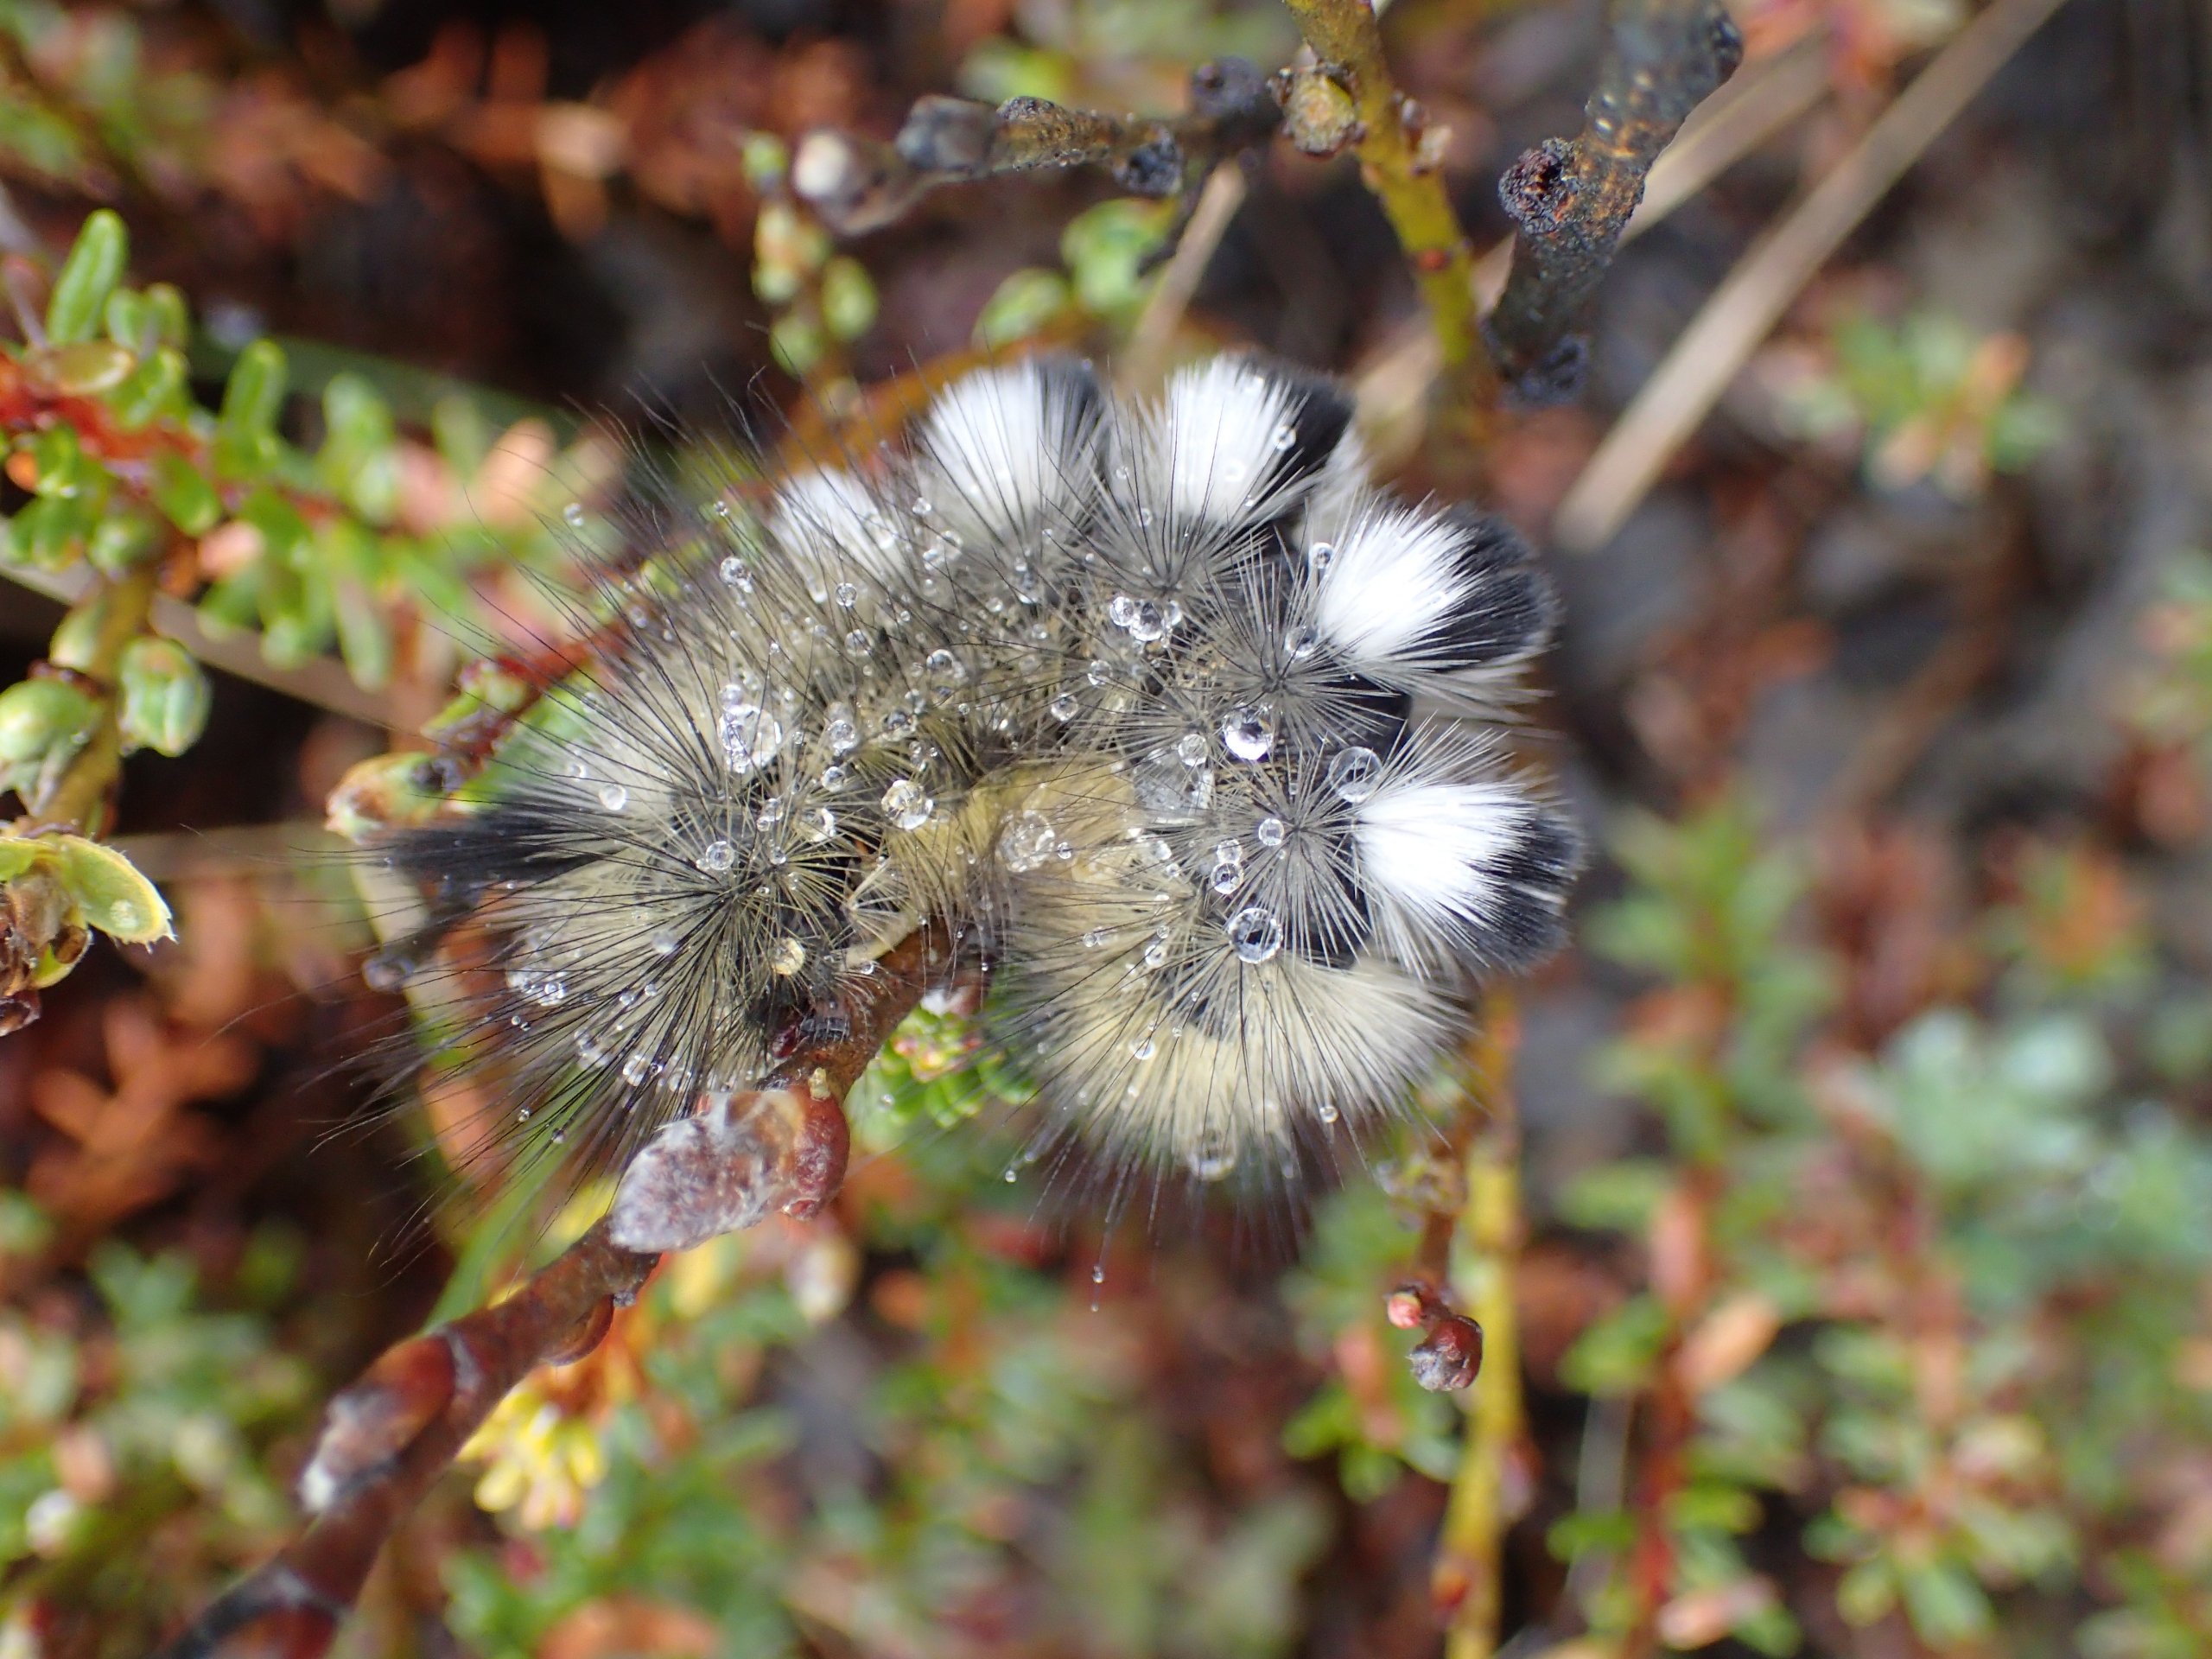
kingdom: Animalia
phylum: Arthropoda
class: Insecta
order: Lepidoptera
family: Erebidae
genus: Calliteara
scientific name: Calliteara Dicallomera fascelina
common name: Hedenonne
